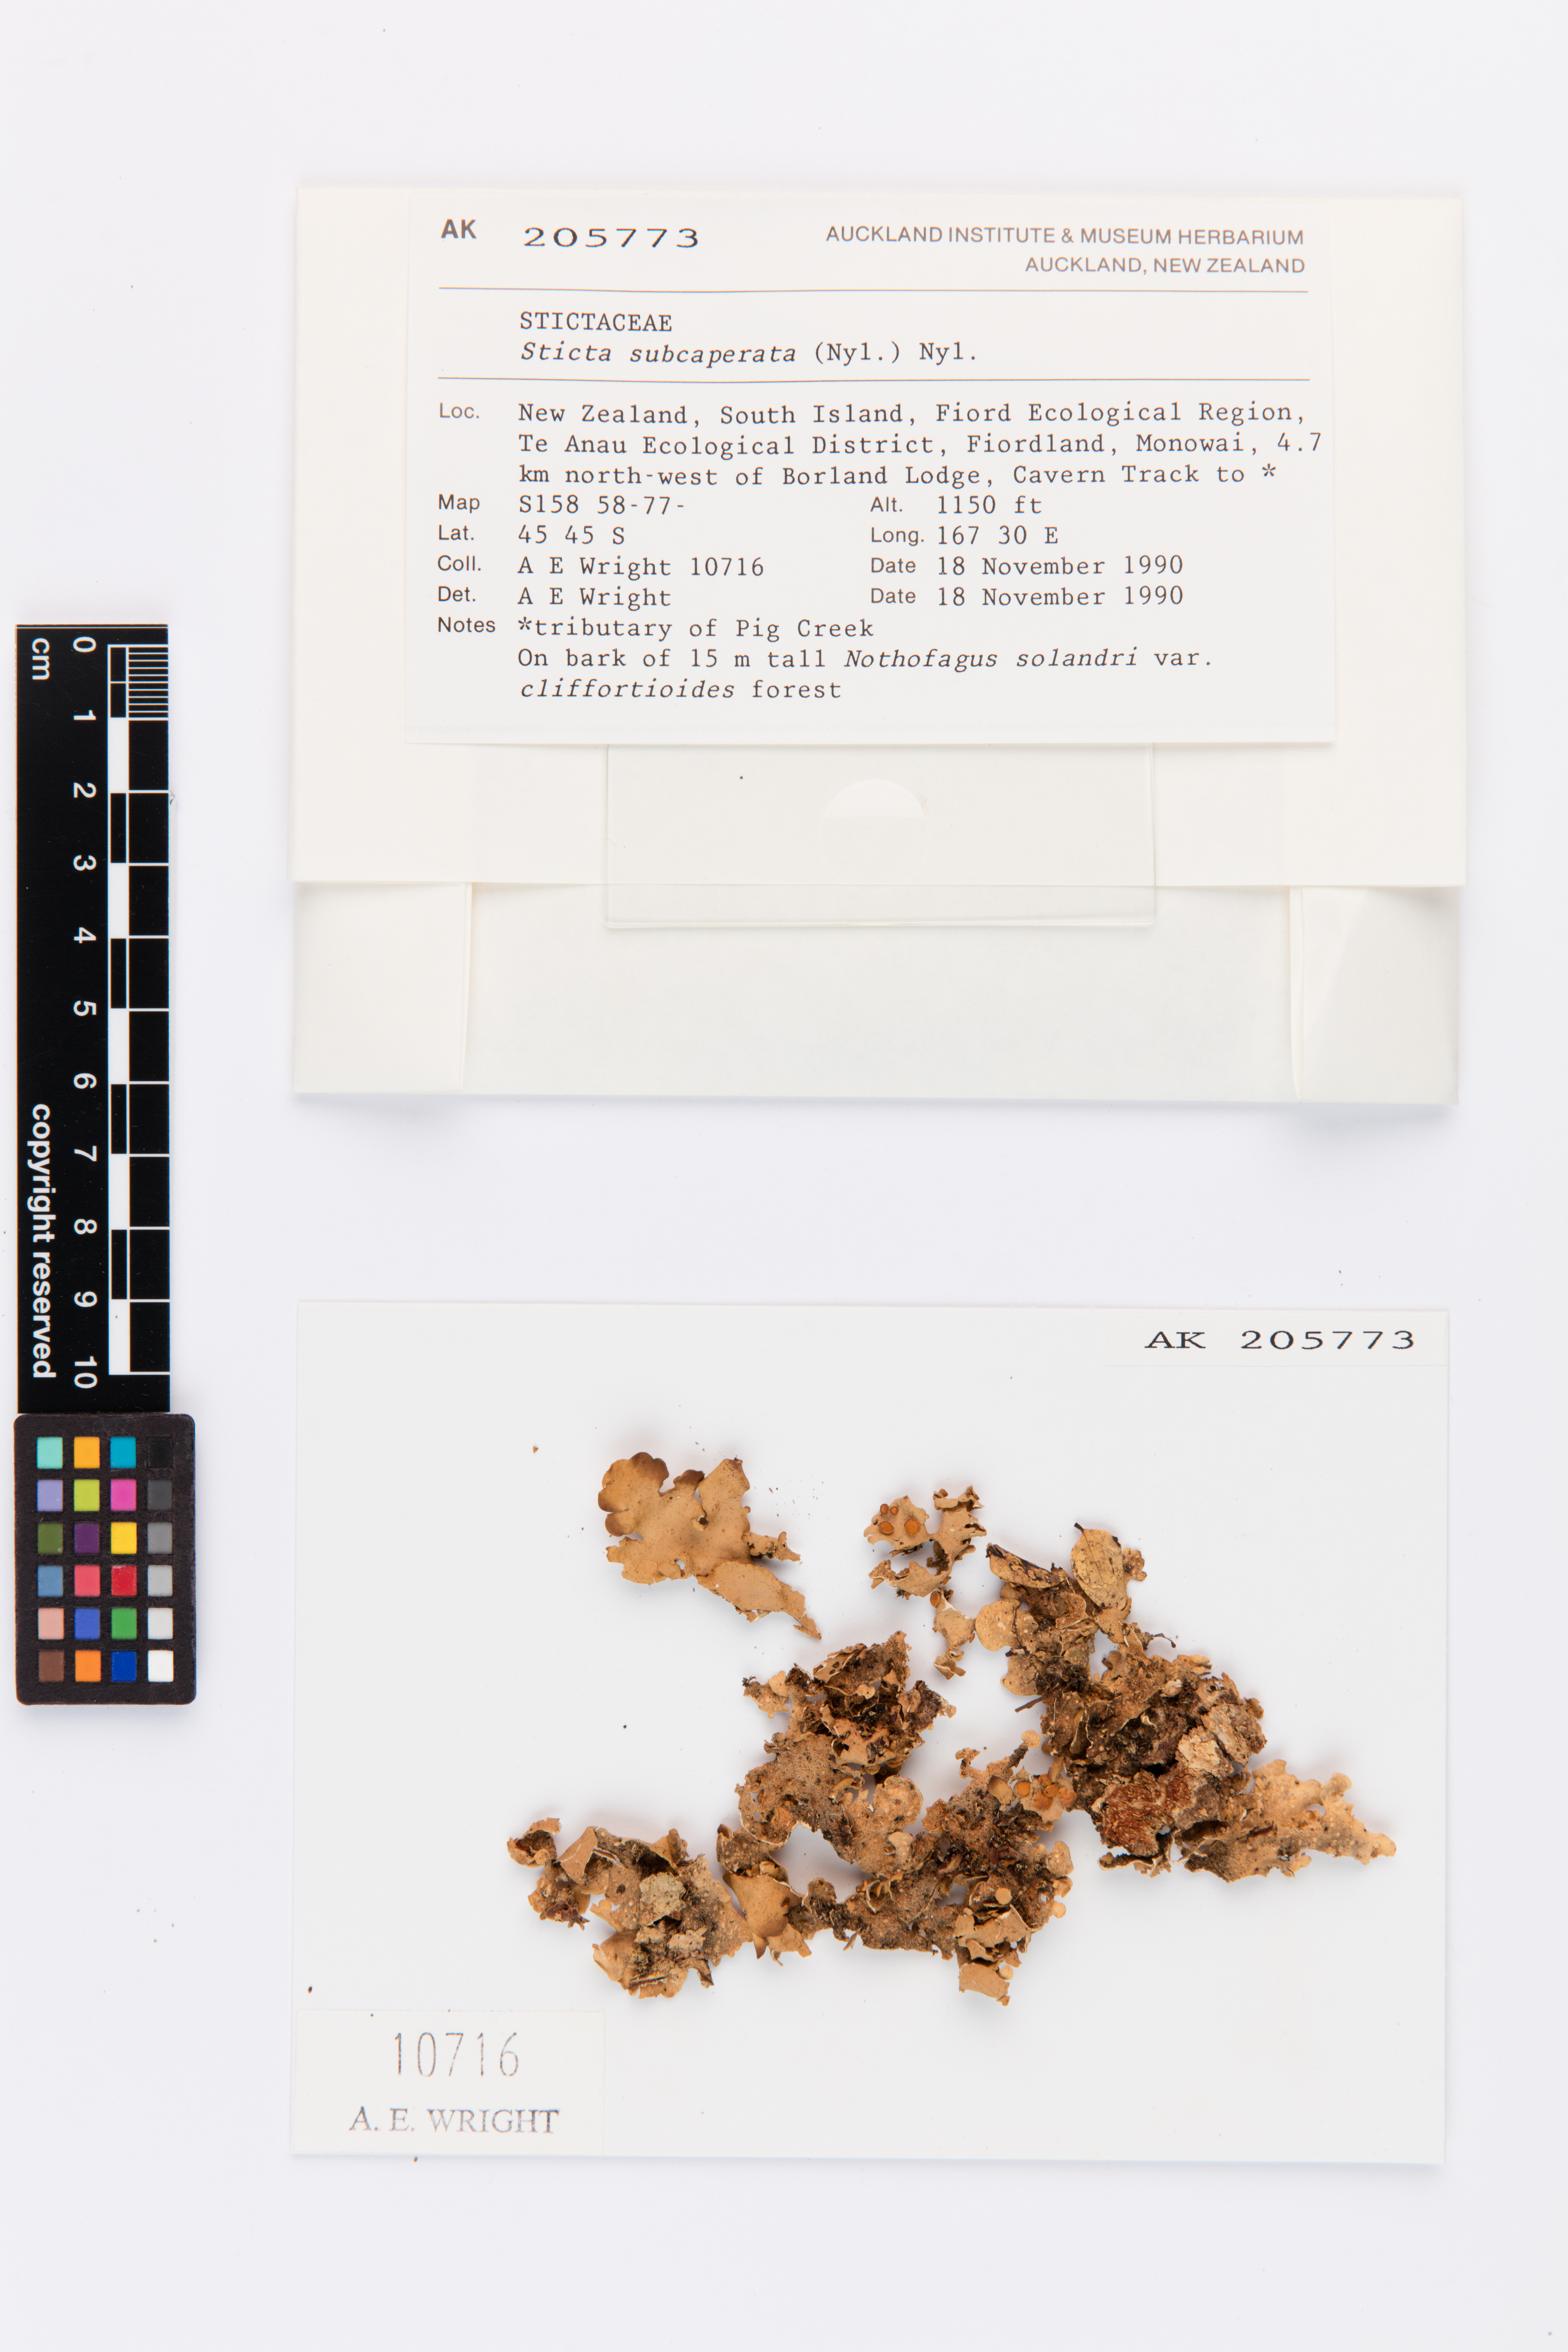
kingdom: Fungi
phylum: Ascomycota
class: Lecanoromycetes
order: Peltigerales
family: Lobariaceae
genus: Sticta
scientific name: Sticta subcaperata
